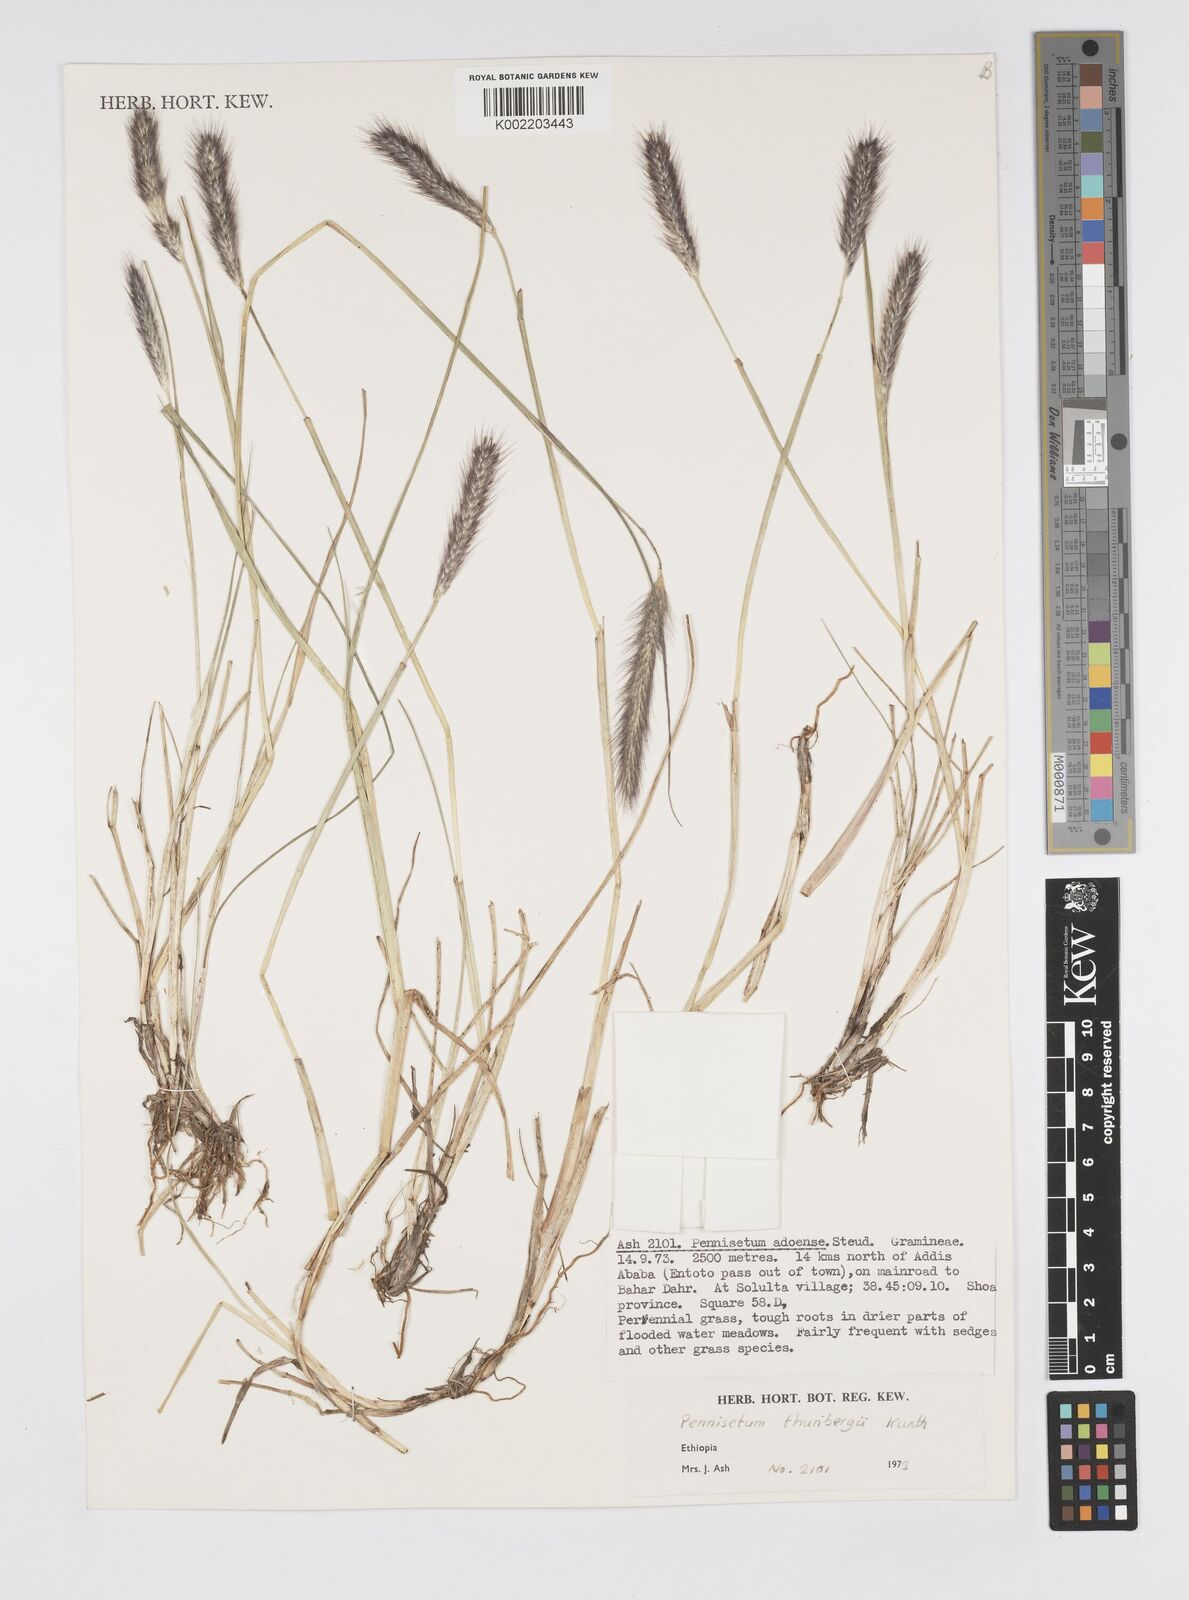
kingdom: Plantae
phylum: Tracheophyta
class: Liliopsida
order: Poales
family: Poaceae
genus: Cenchrus
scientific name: Cenchrus geniculatus
